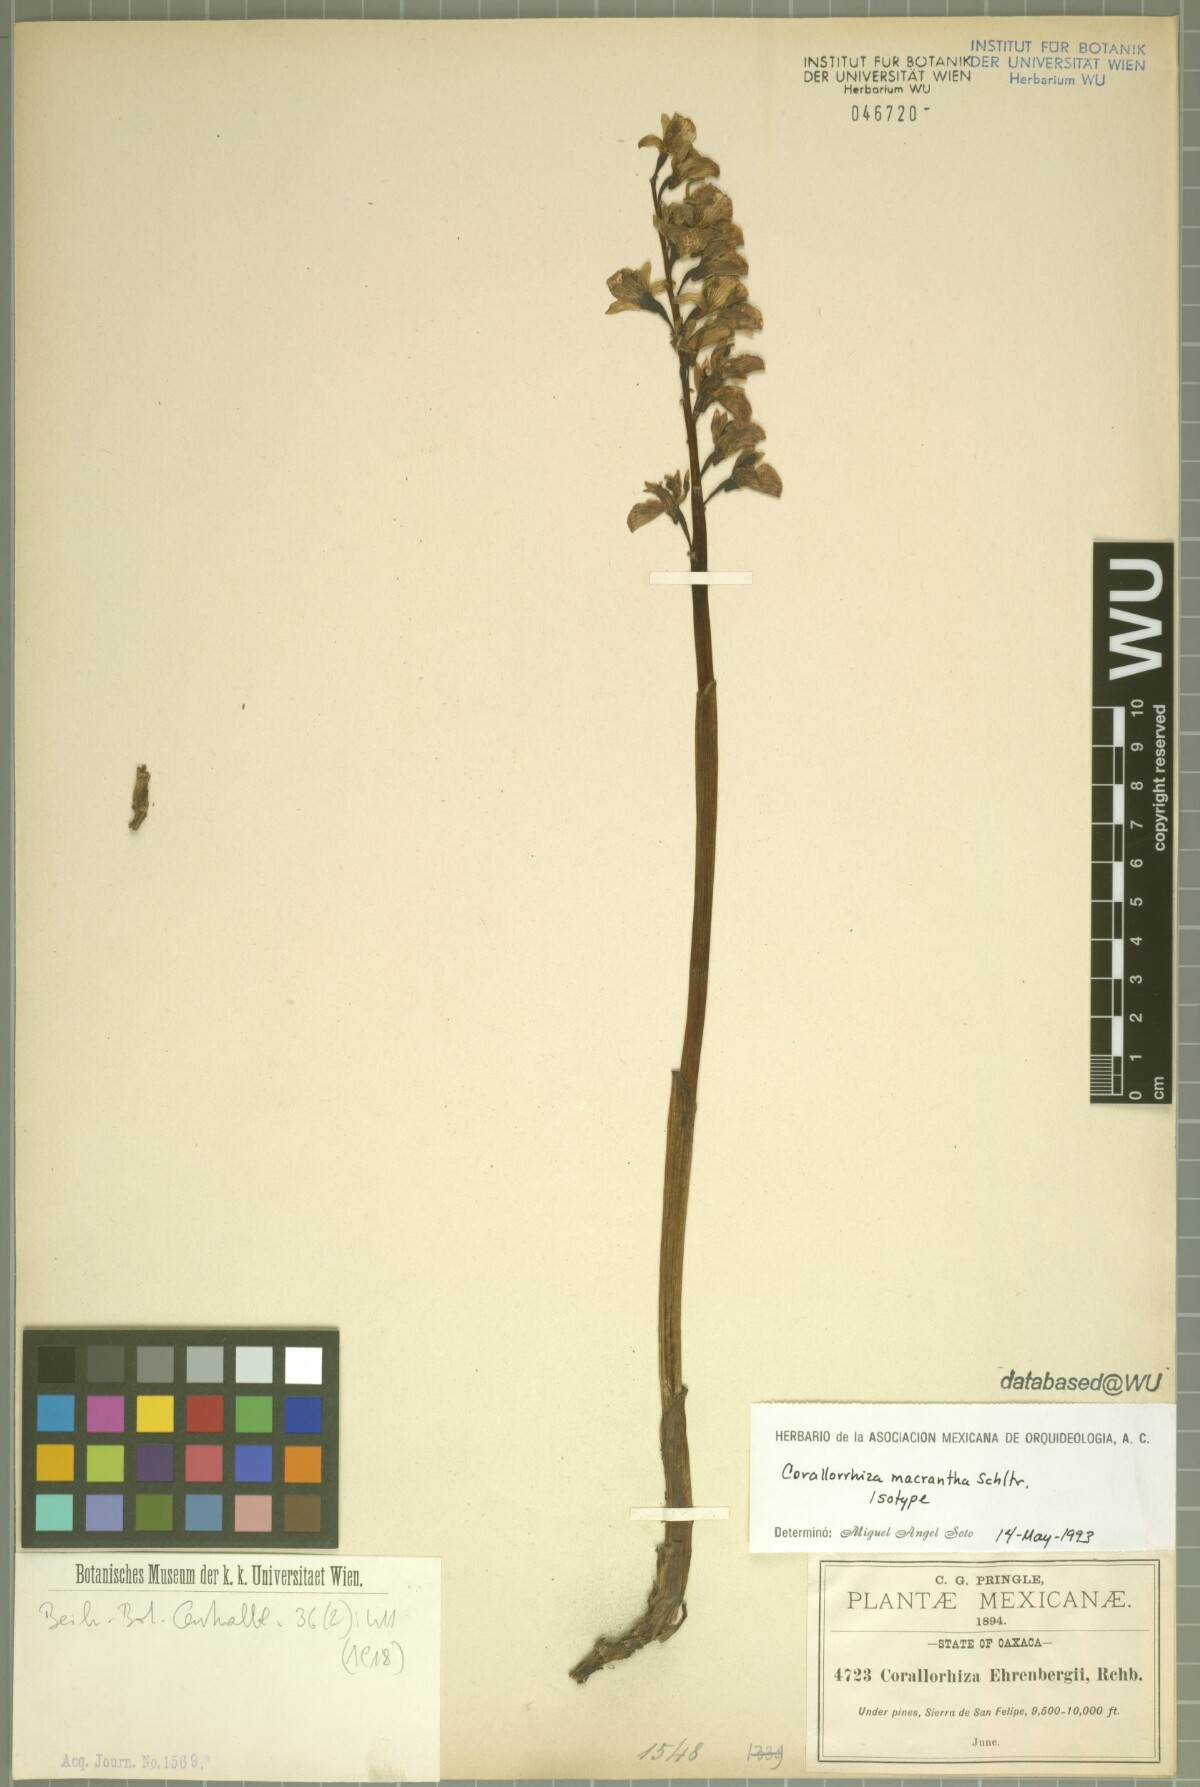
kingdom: Plantae
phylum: Tracheophyta
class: Liliopsida
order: Asparagales
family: Orchidaceae
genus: Corallorhiza
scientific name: Corallorhiza macrantha
